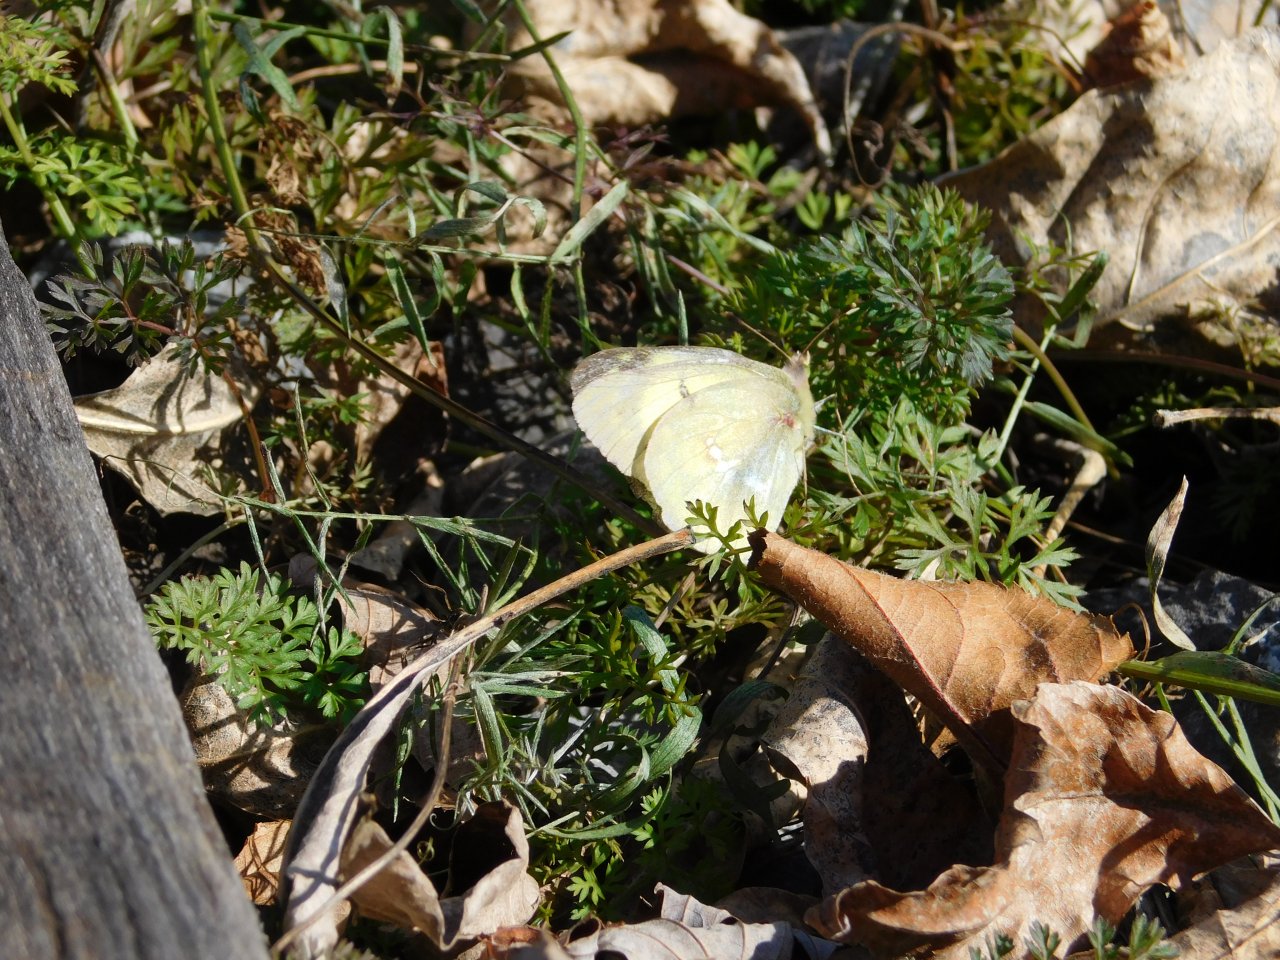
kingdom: Animalia
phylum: Arthropoda
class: Insecta
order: Lepidoptera
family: Pieridae
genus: Colias
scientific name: Colias philodice
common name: Clouded Sulphur
